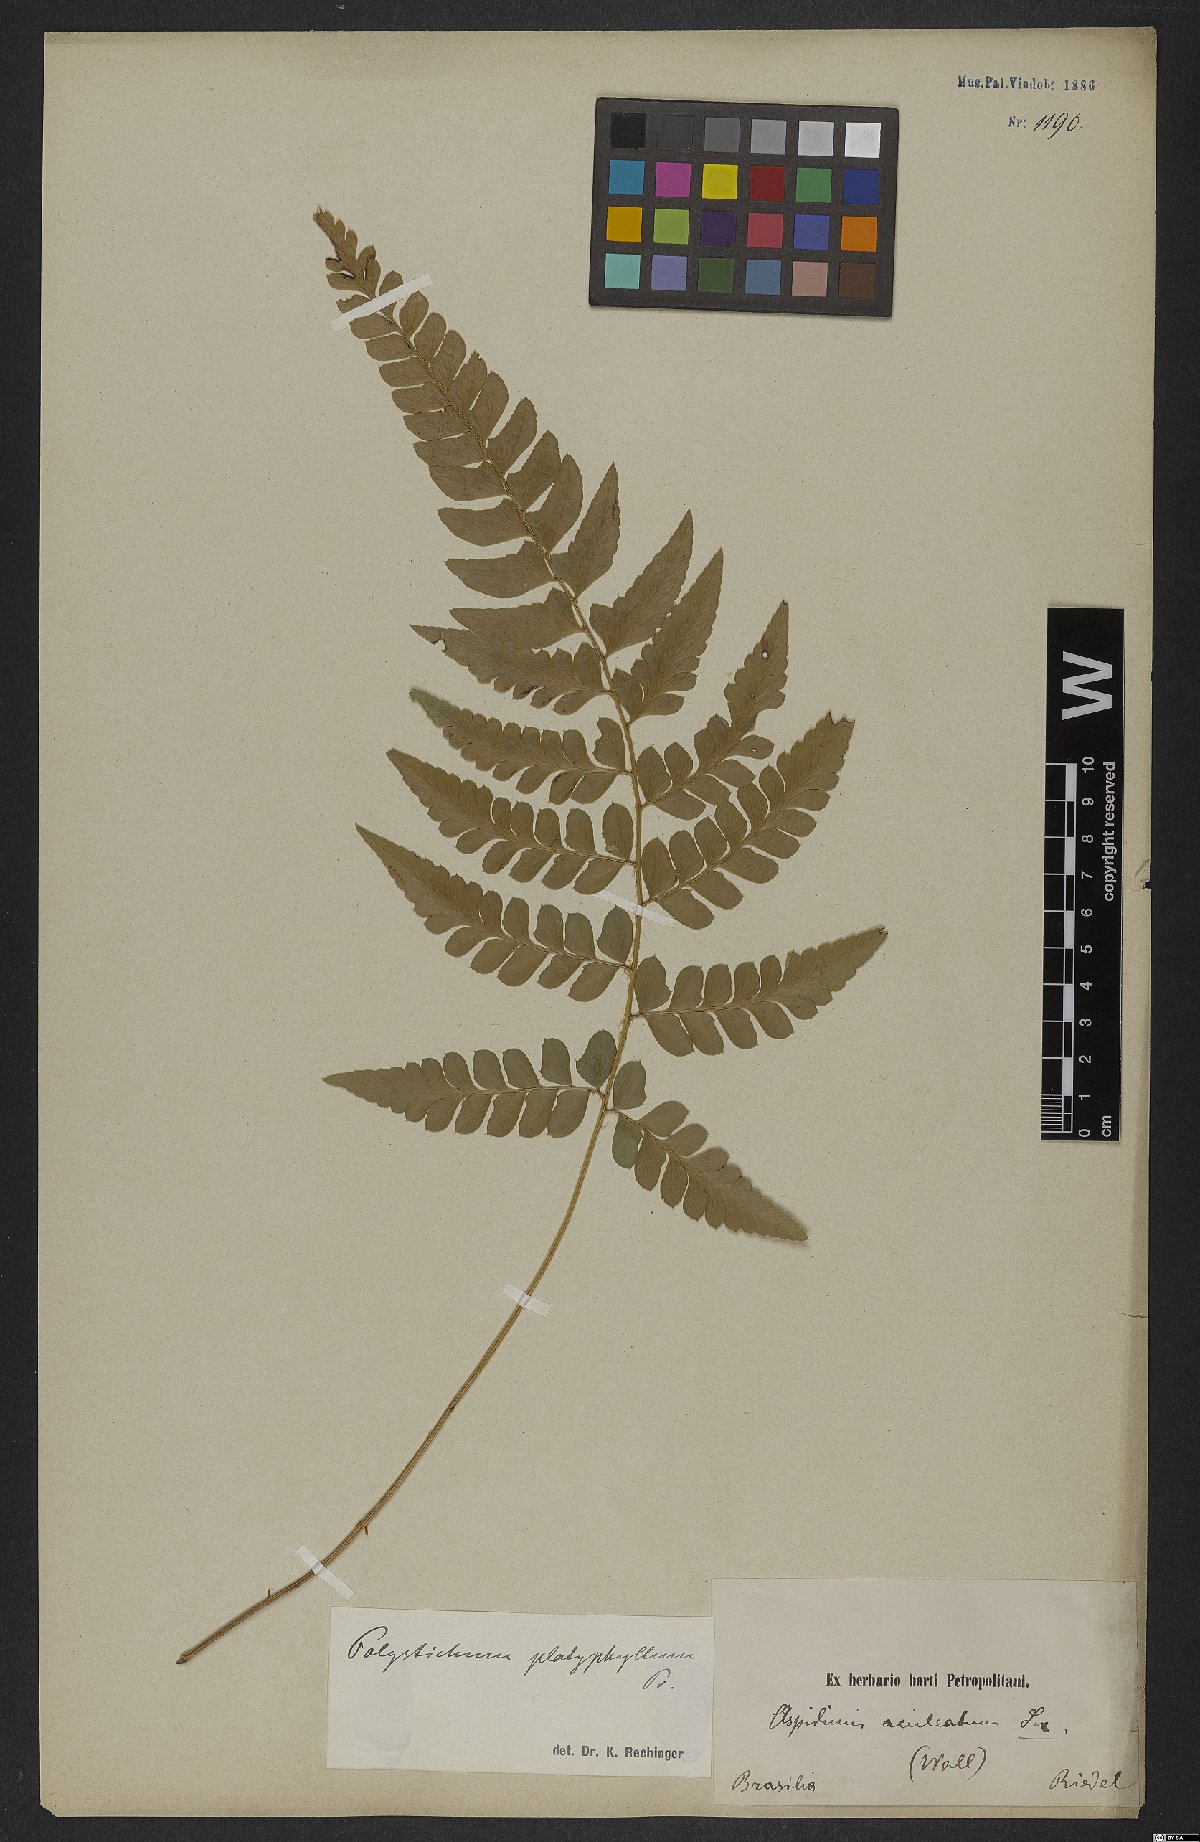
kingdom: Plantae
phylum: Tracheophyta
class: Polypodiopsida
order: Polypodiales
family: Dryopteridaceae
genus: Polystichum
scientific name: Polystichum aculeatum
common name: Hard shield-fern
